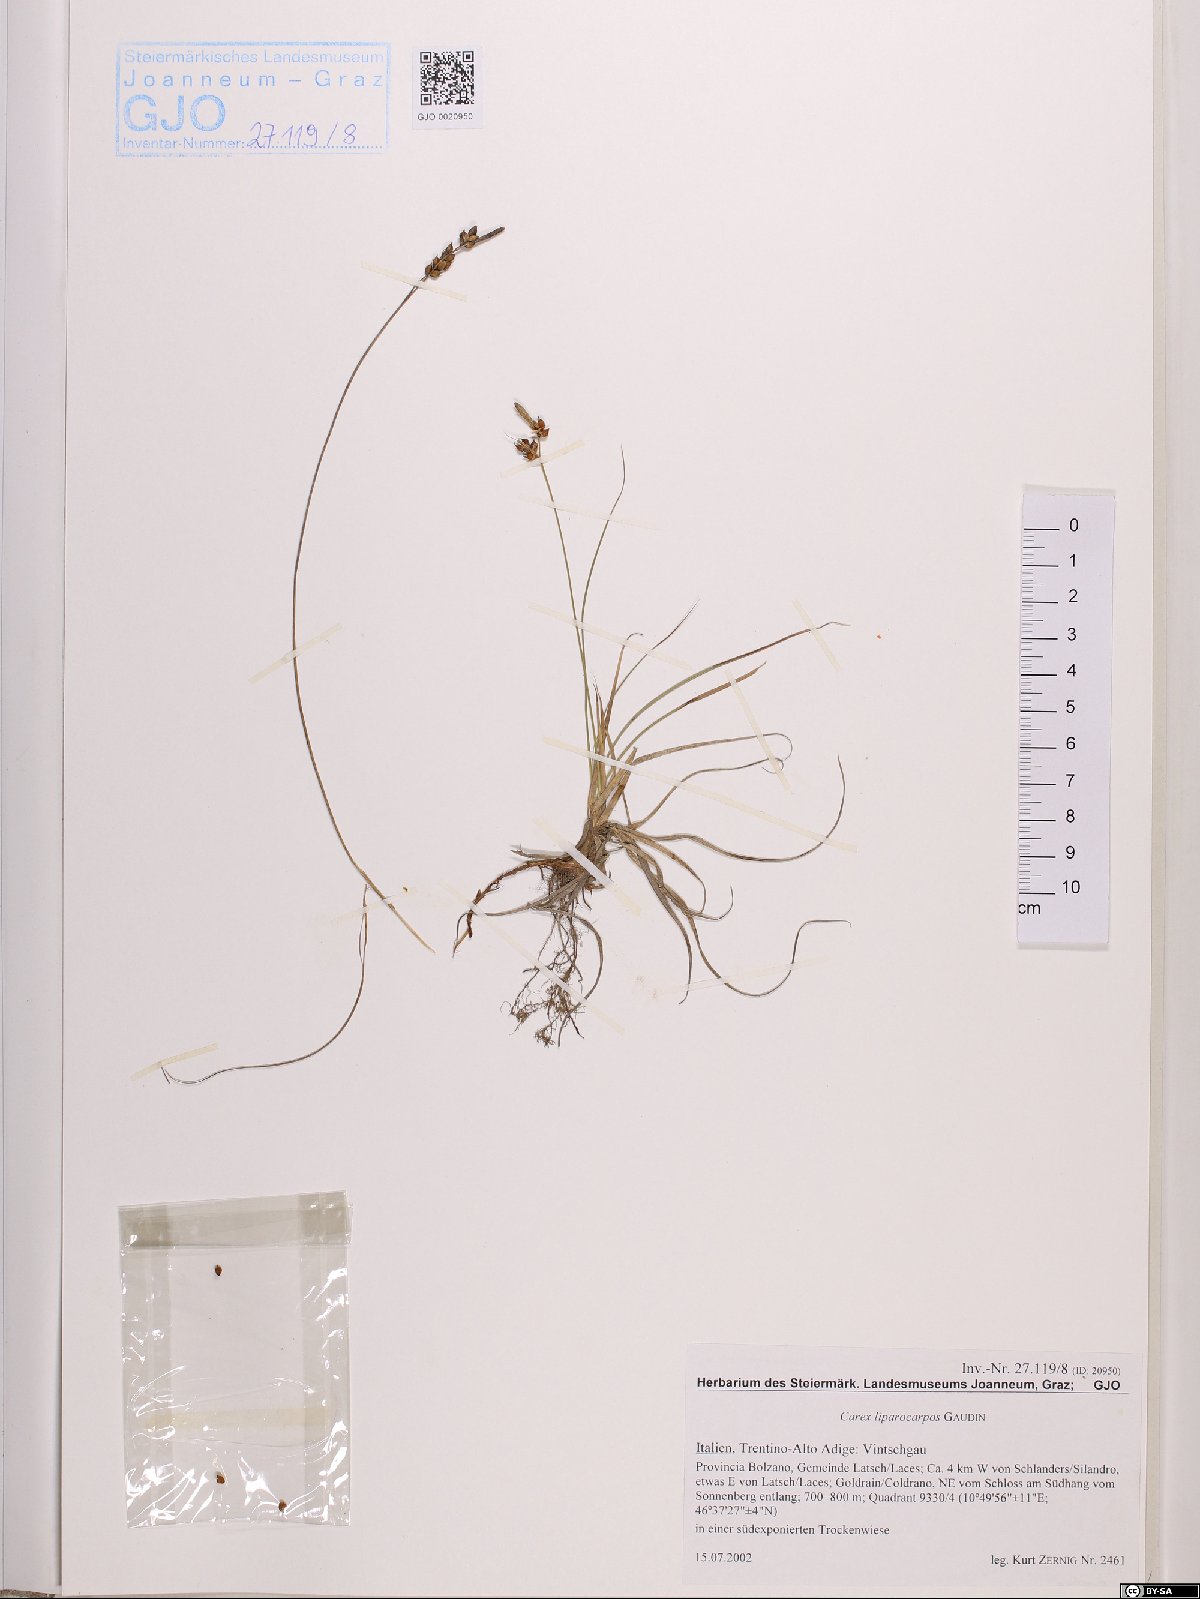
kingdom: Plantae
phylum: Tracheophyta
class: Liliopsida
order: Poales
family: Cyperaceae
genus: Carex
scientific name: Carex liparocarpos
